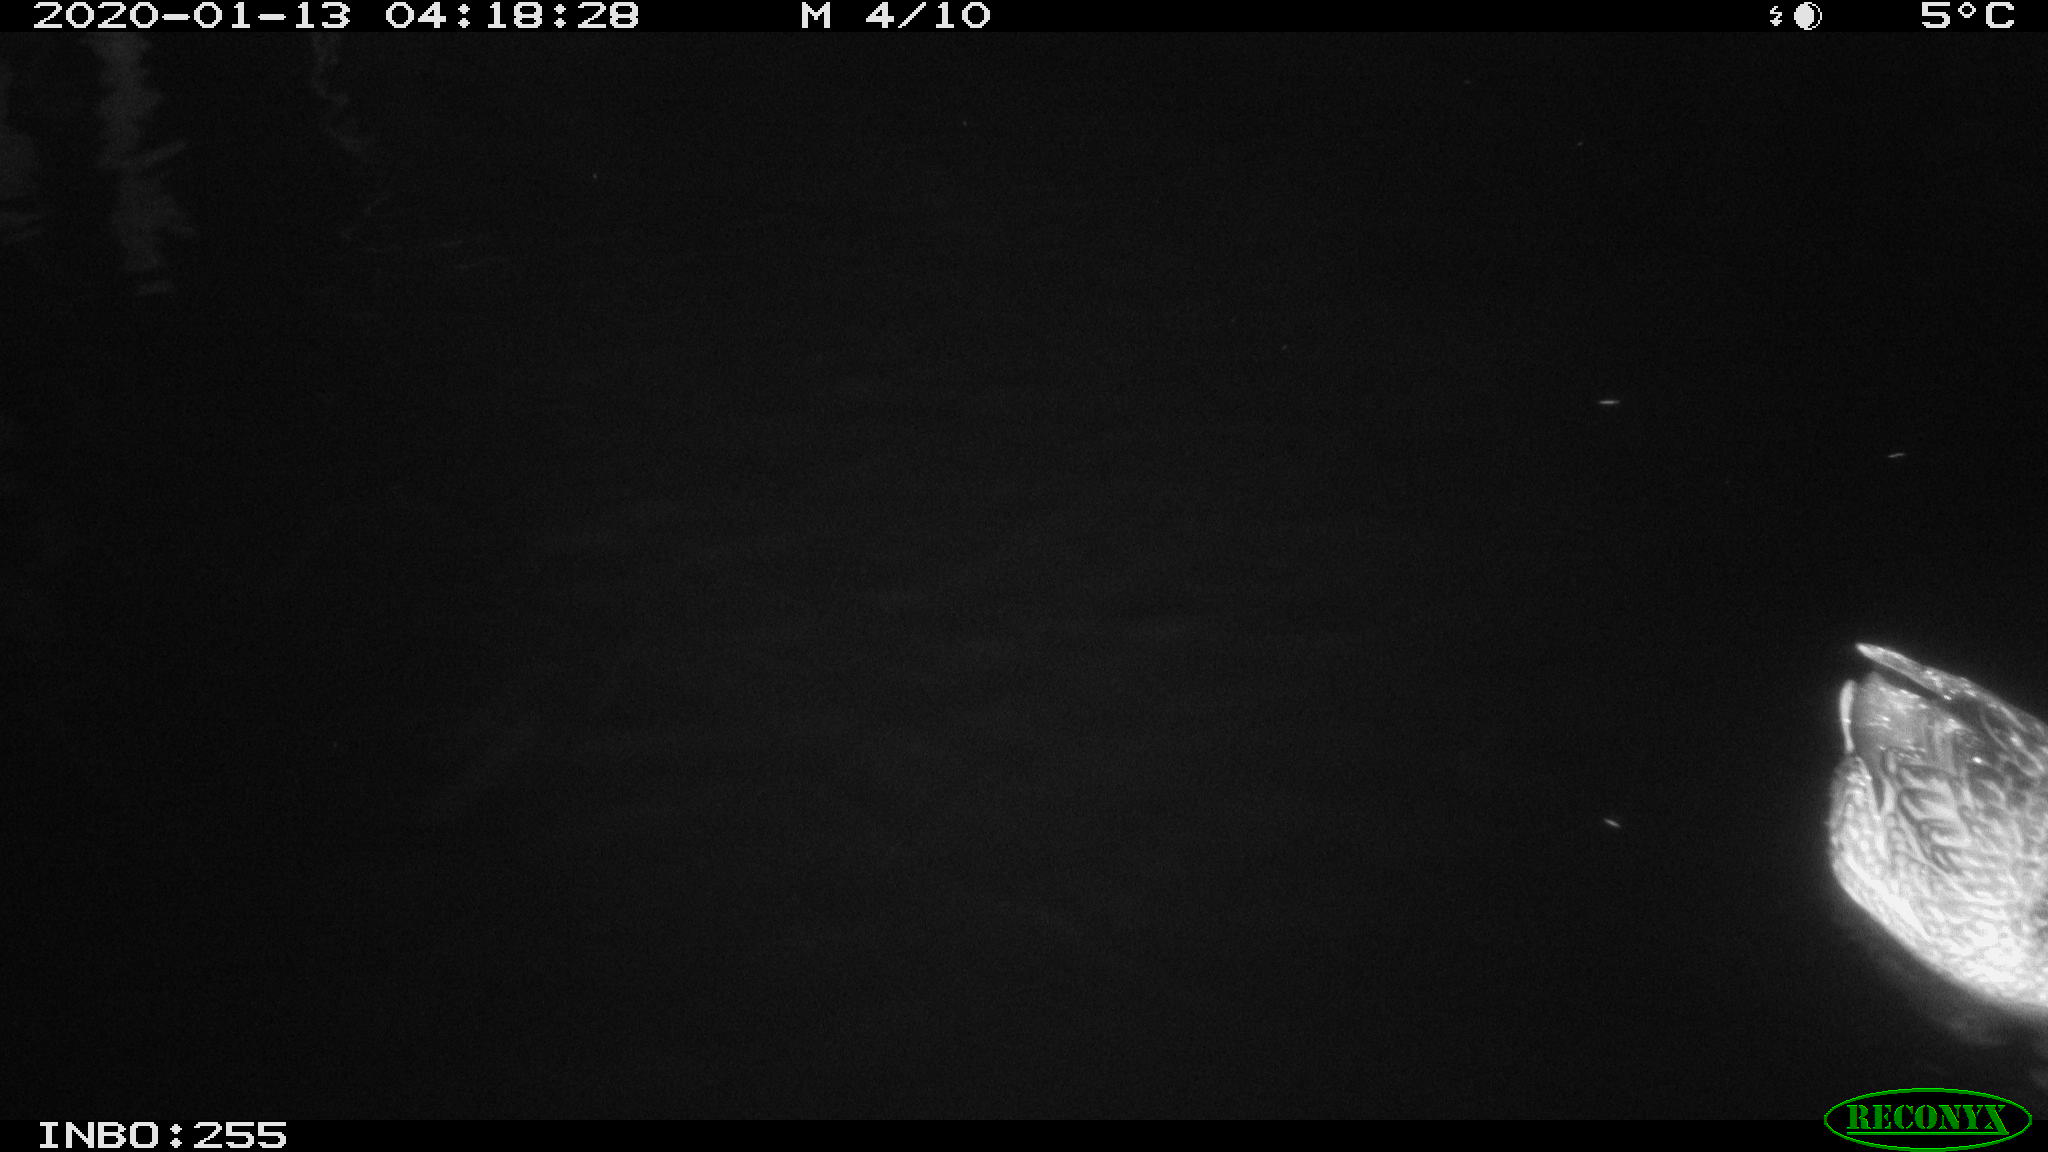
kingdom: Animalia
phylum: Chordata
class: Aves
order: Anseriformes
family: Anatidae
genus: Anas
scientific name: Anas platyrhynchos
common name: Mallard
